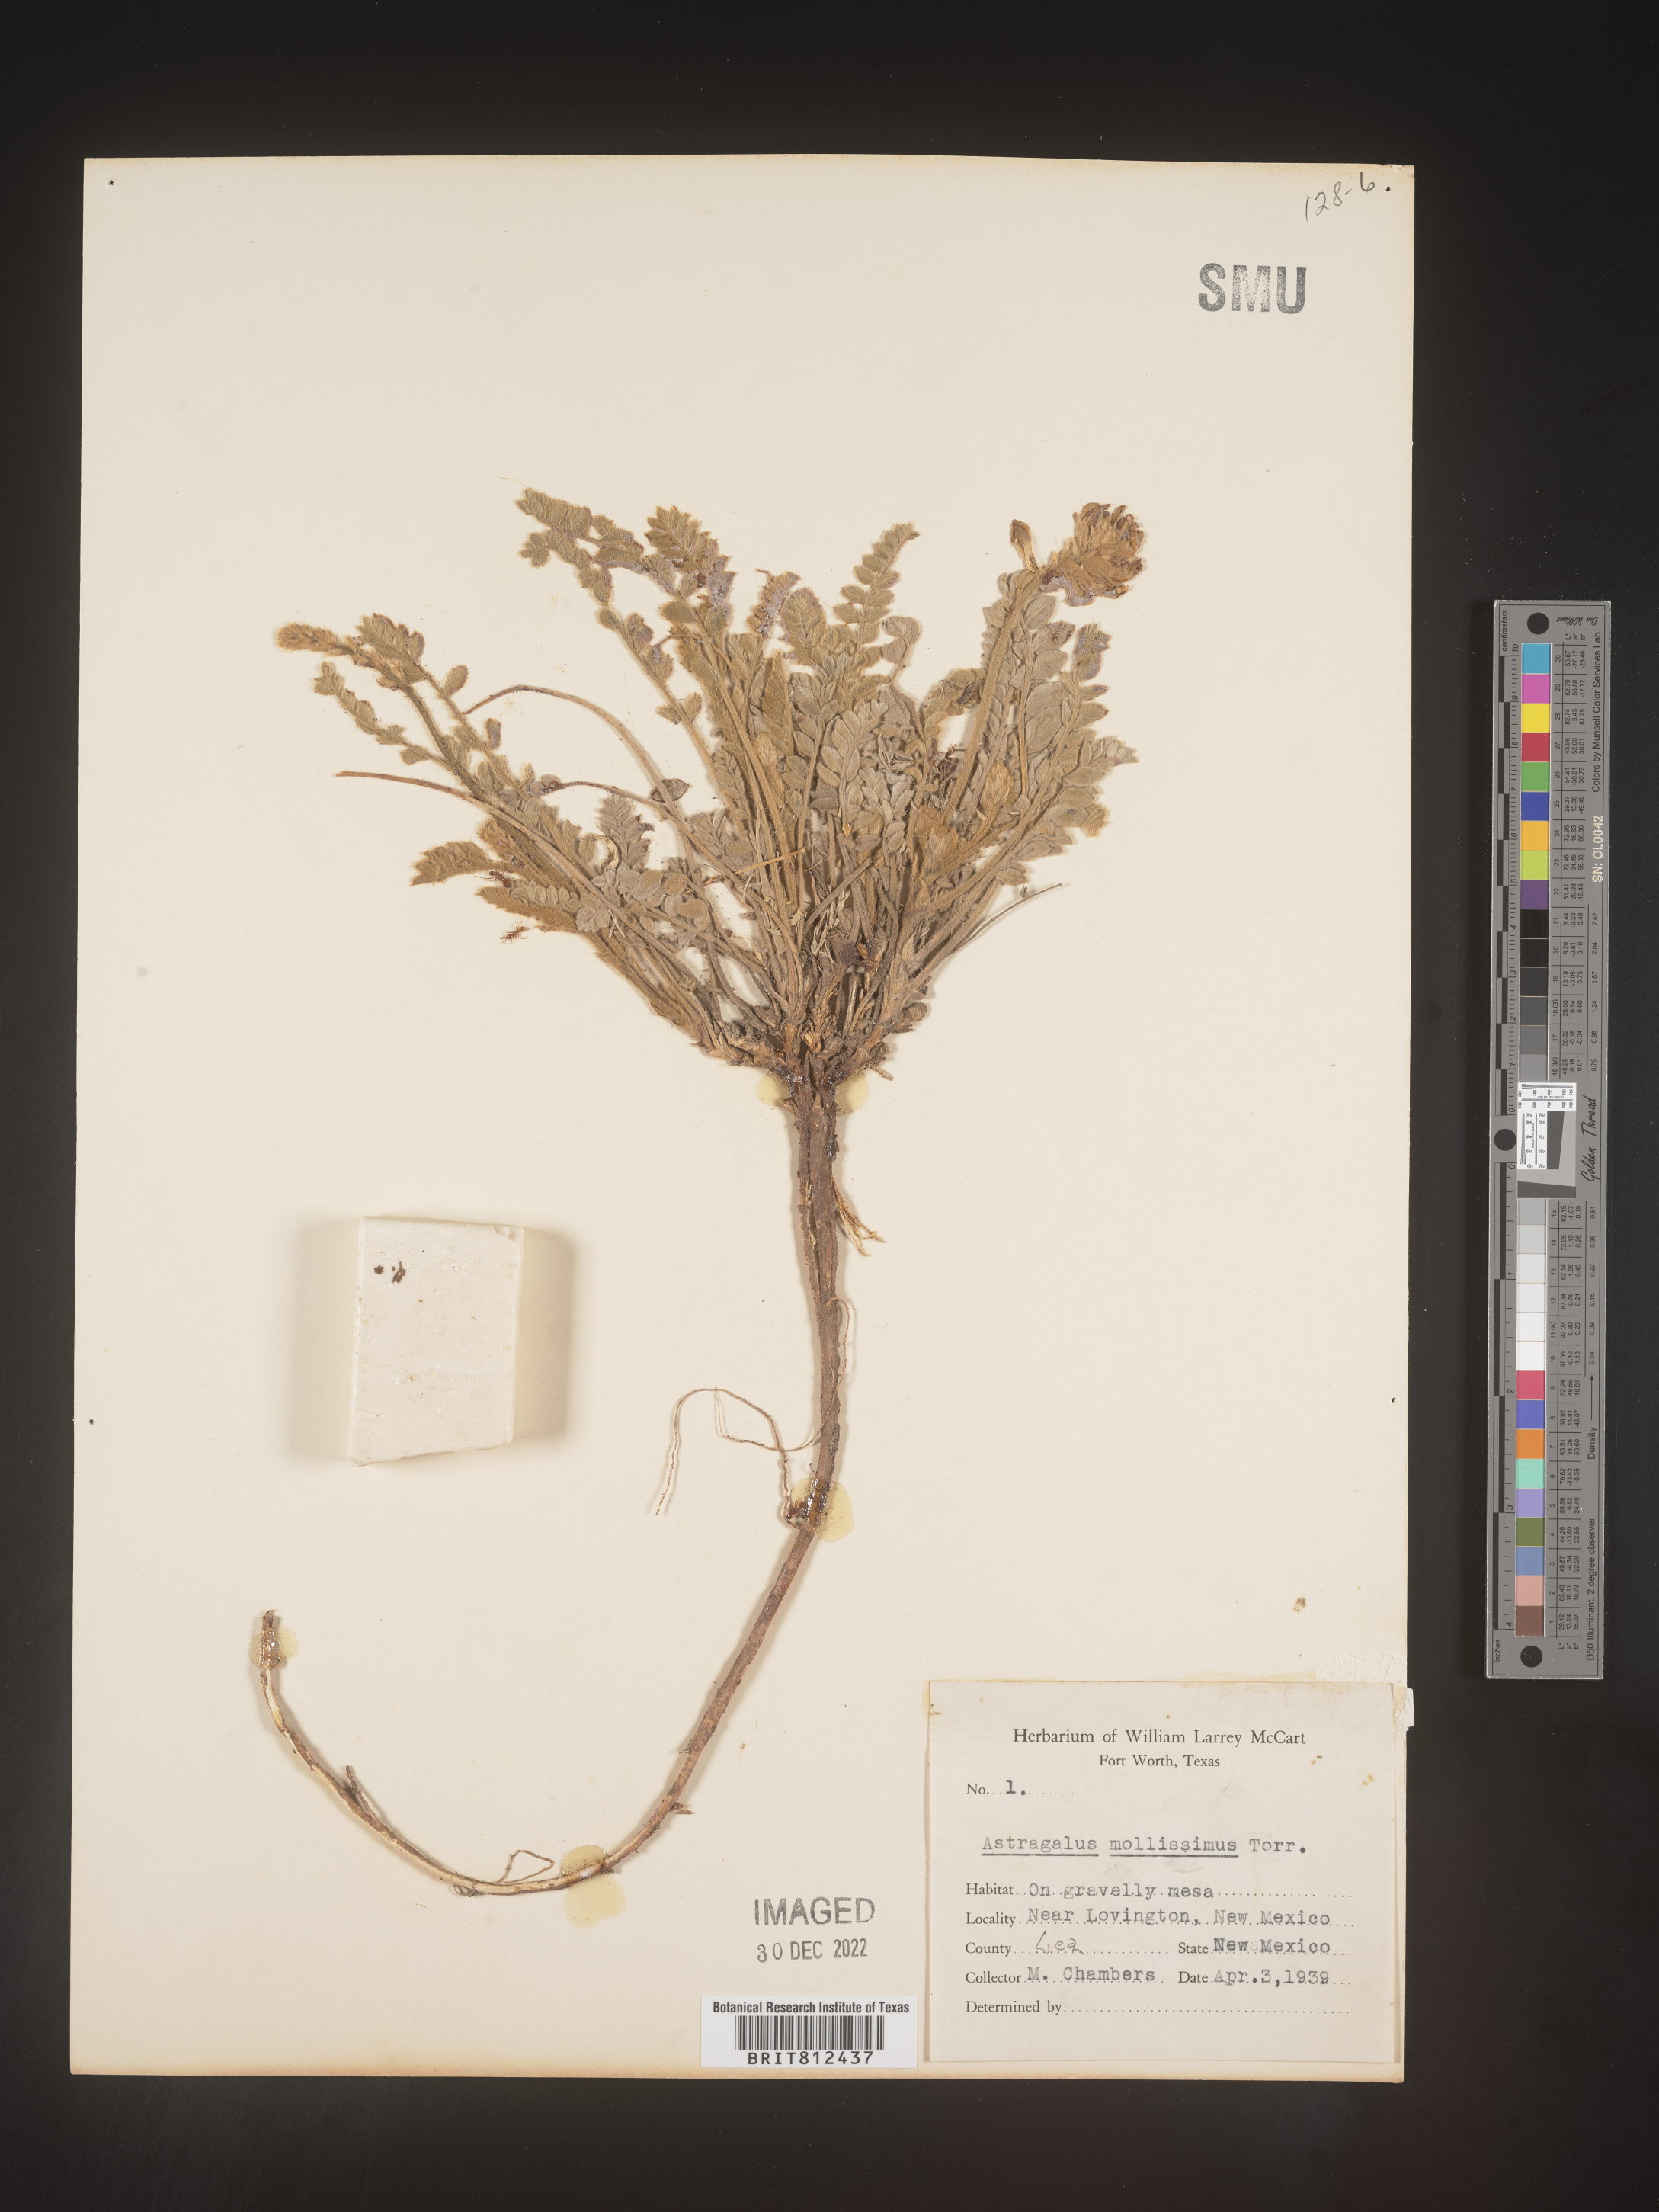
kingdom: Plantae
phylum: Tracheophyta
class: Magnoliopsida
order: Fabales
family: Fabaceae
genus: Astragalus
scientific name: Astragalus
